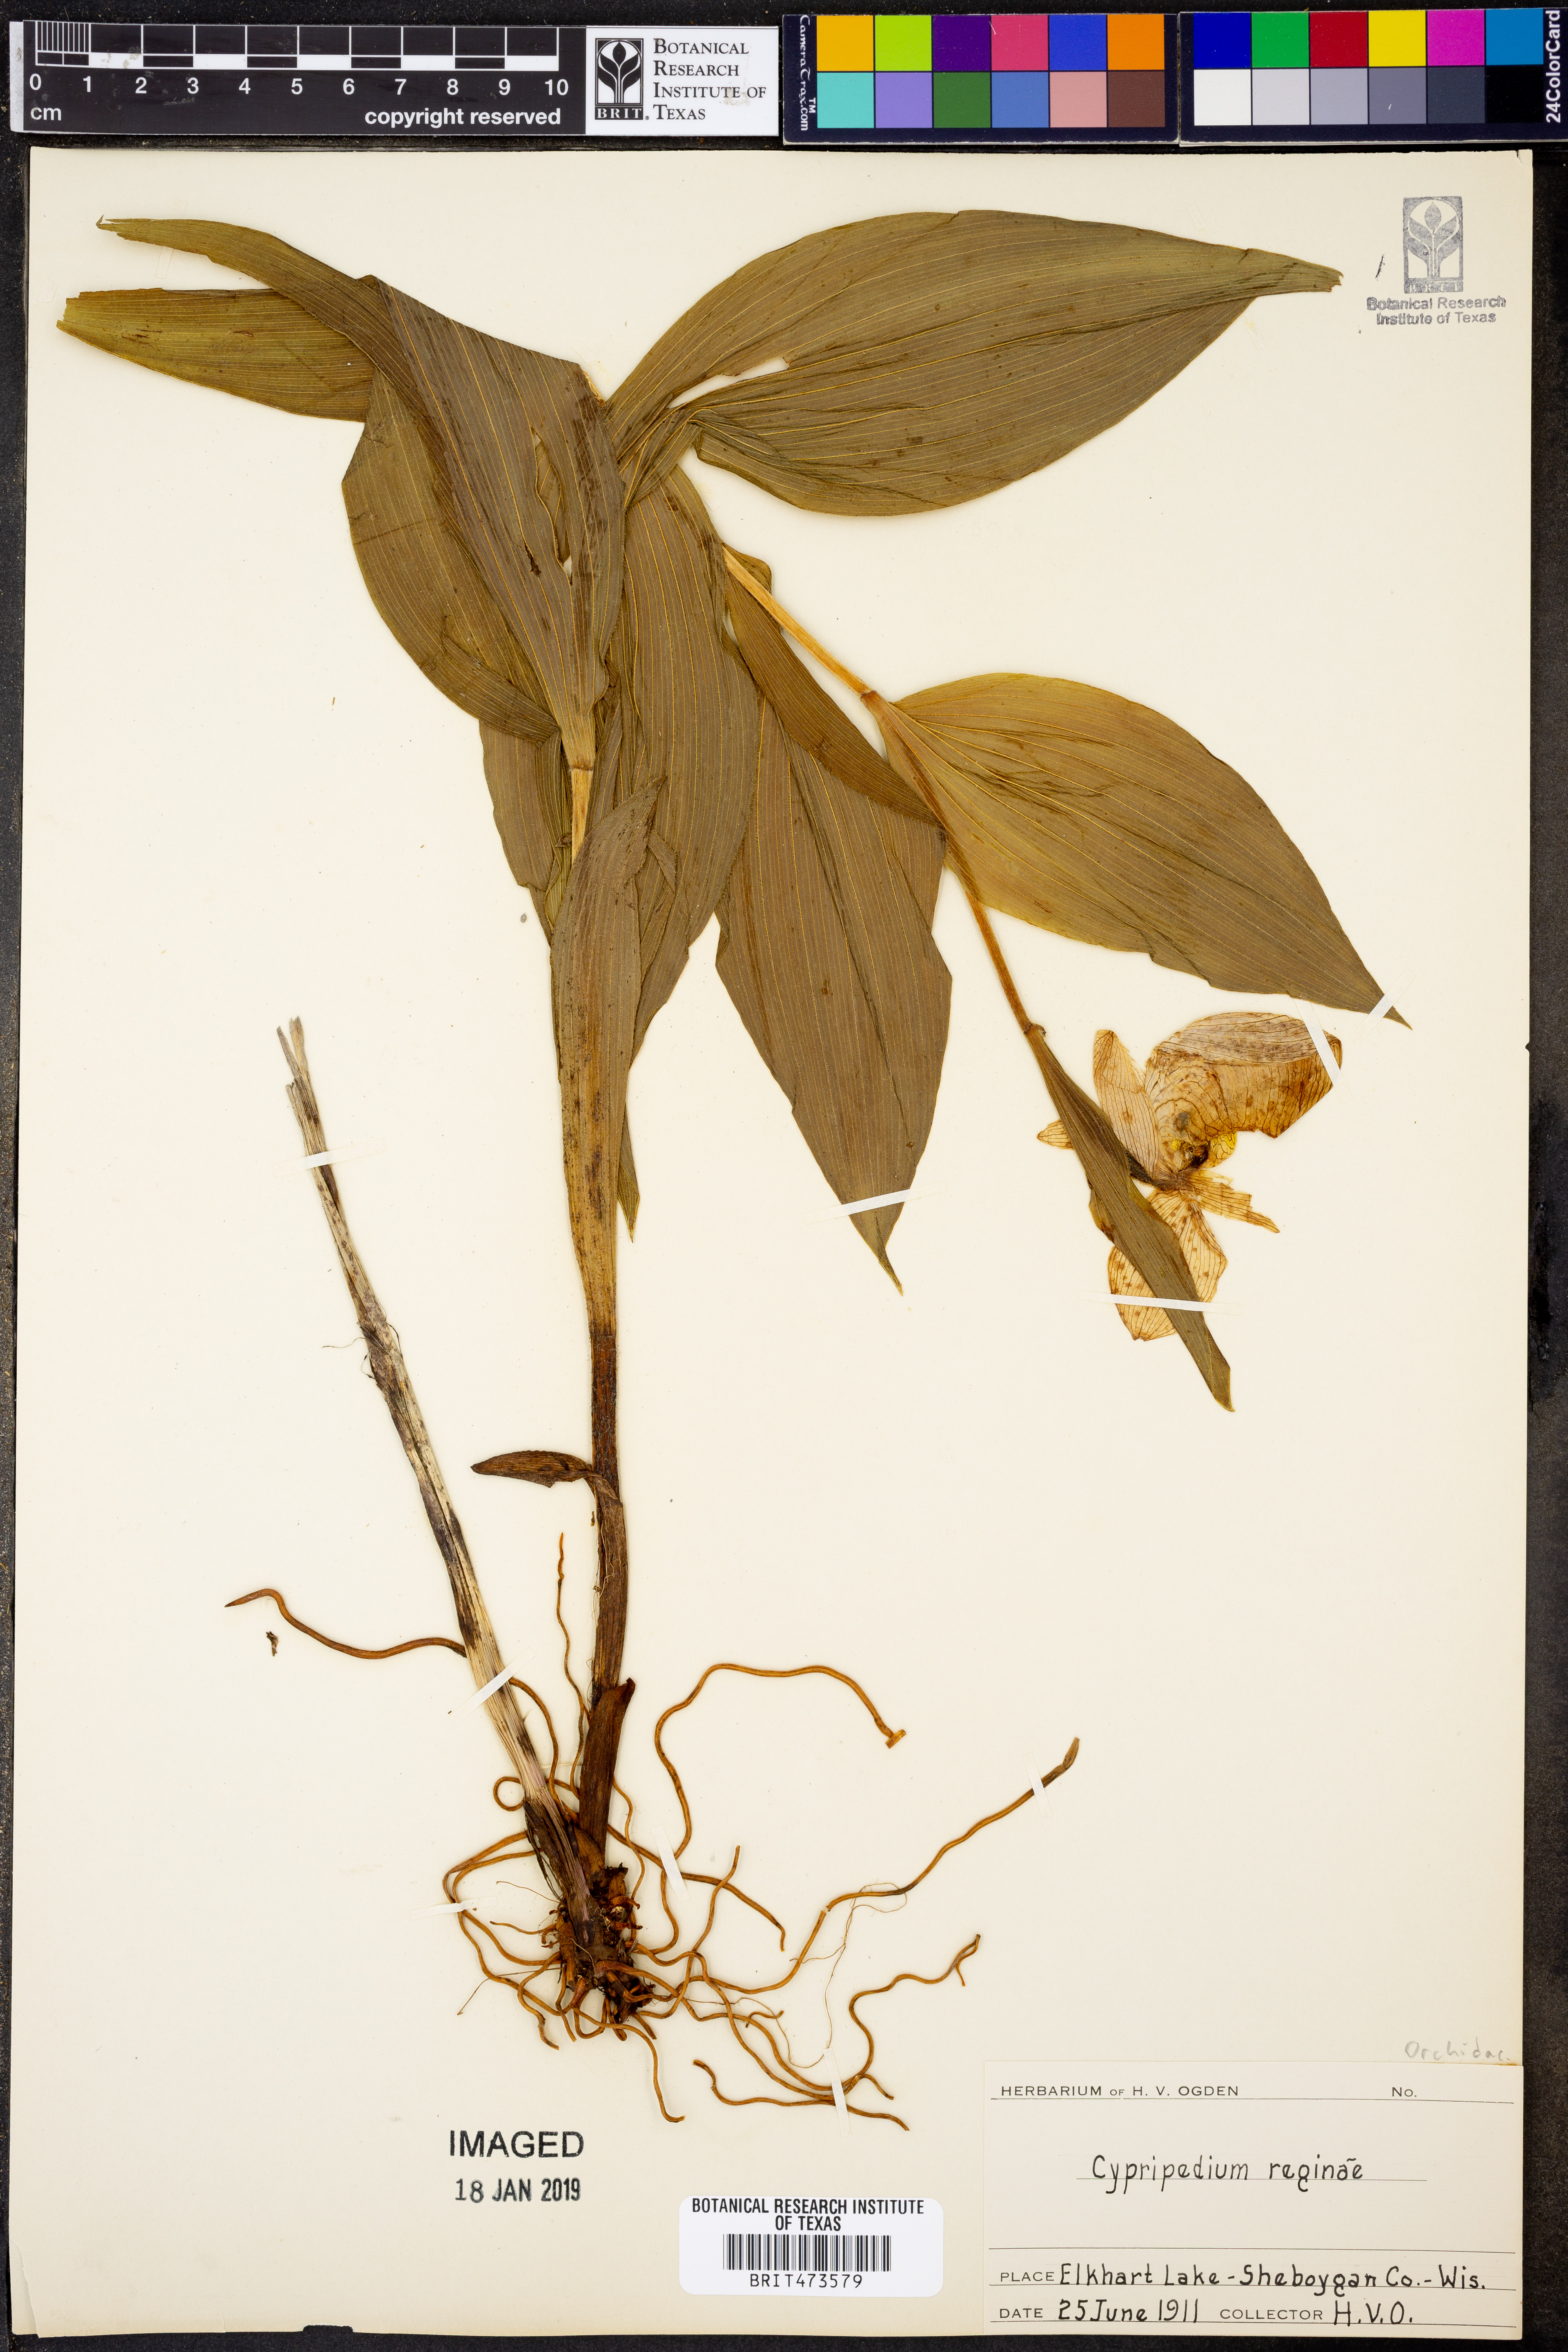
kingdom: Plantae
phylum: Tracheophyta
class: Liliopsida
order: Asparagales
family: Orchidaceae
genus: Cypripedium
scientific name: Cypripedium reginae
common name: Queen lady's-slipper
